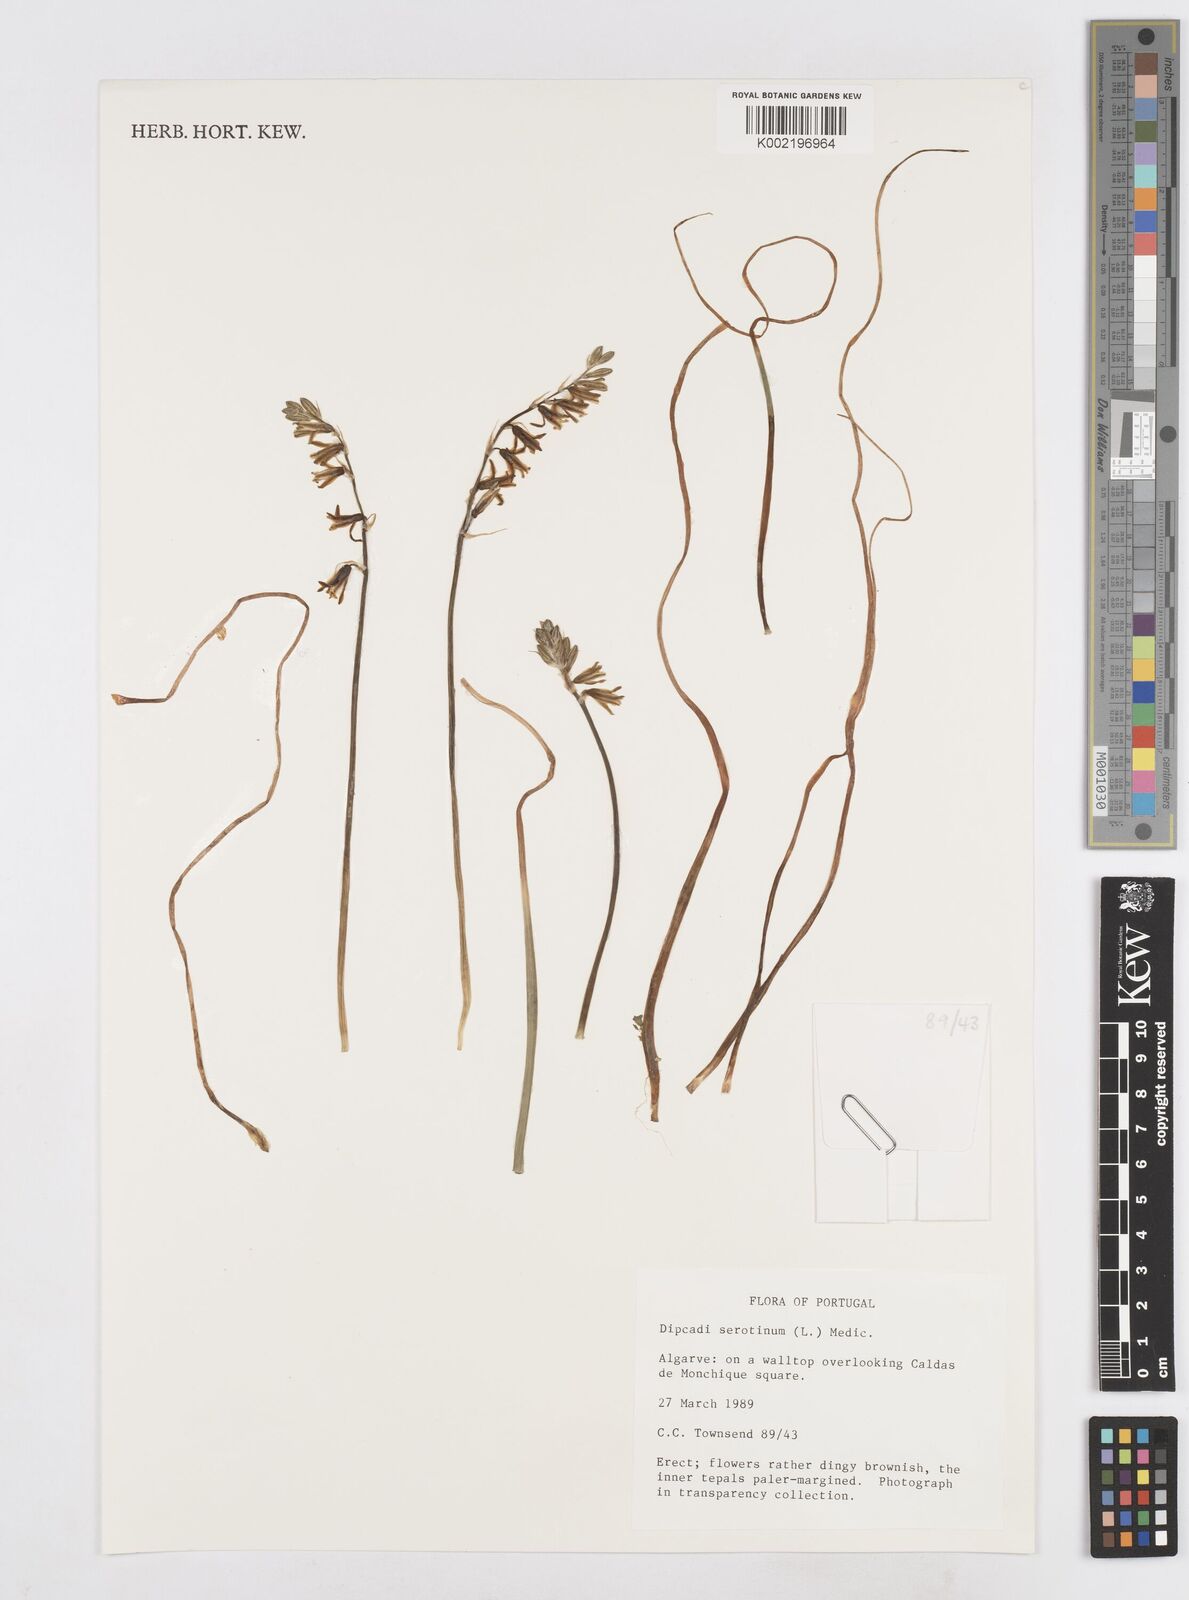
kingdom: Plantae
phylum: Tracheophyta
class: Liliopsida
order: Asparagales
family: Asparagaceae
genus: Dipcadi
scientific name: Dipcadi
